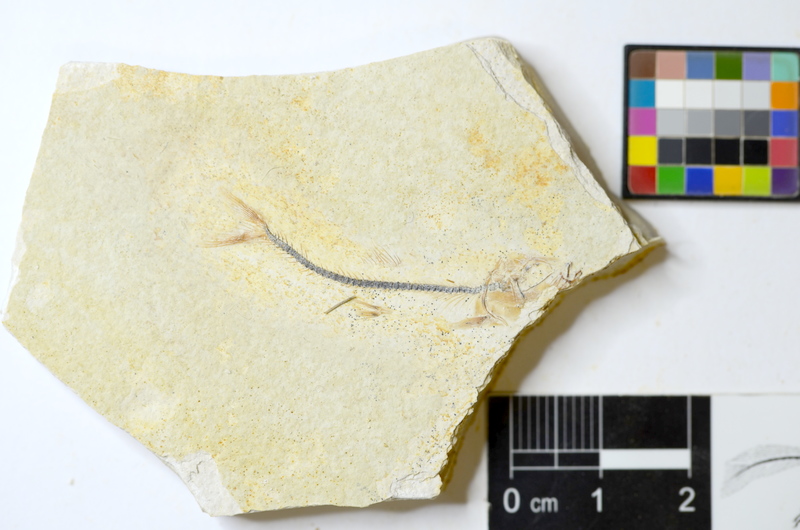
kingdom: Animalia
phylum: Chordata
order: Salmoniformes
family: Orthogonikleithridae
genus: Orthogonikleithrus
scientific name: Orthogonikleithrus hoelli
